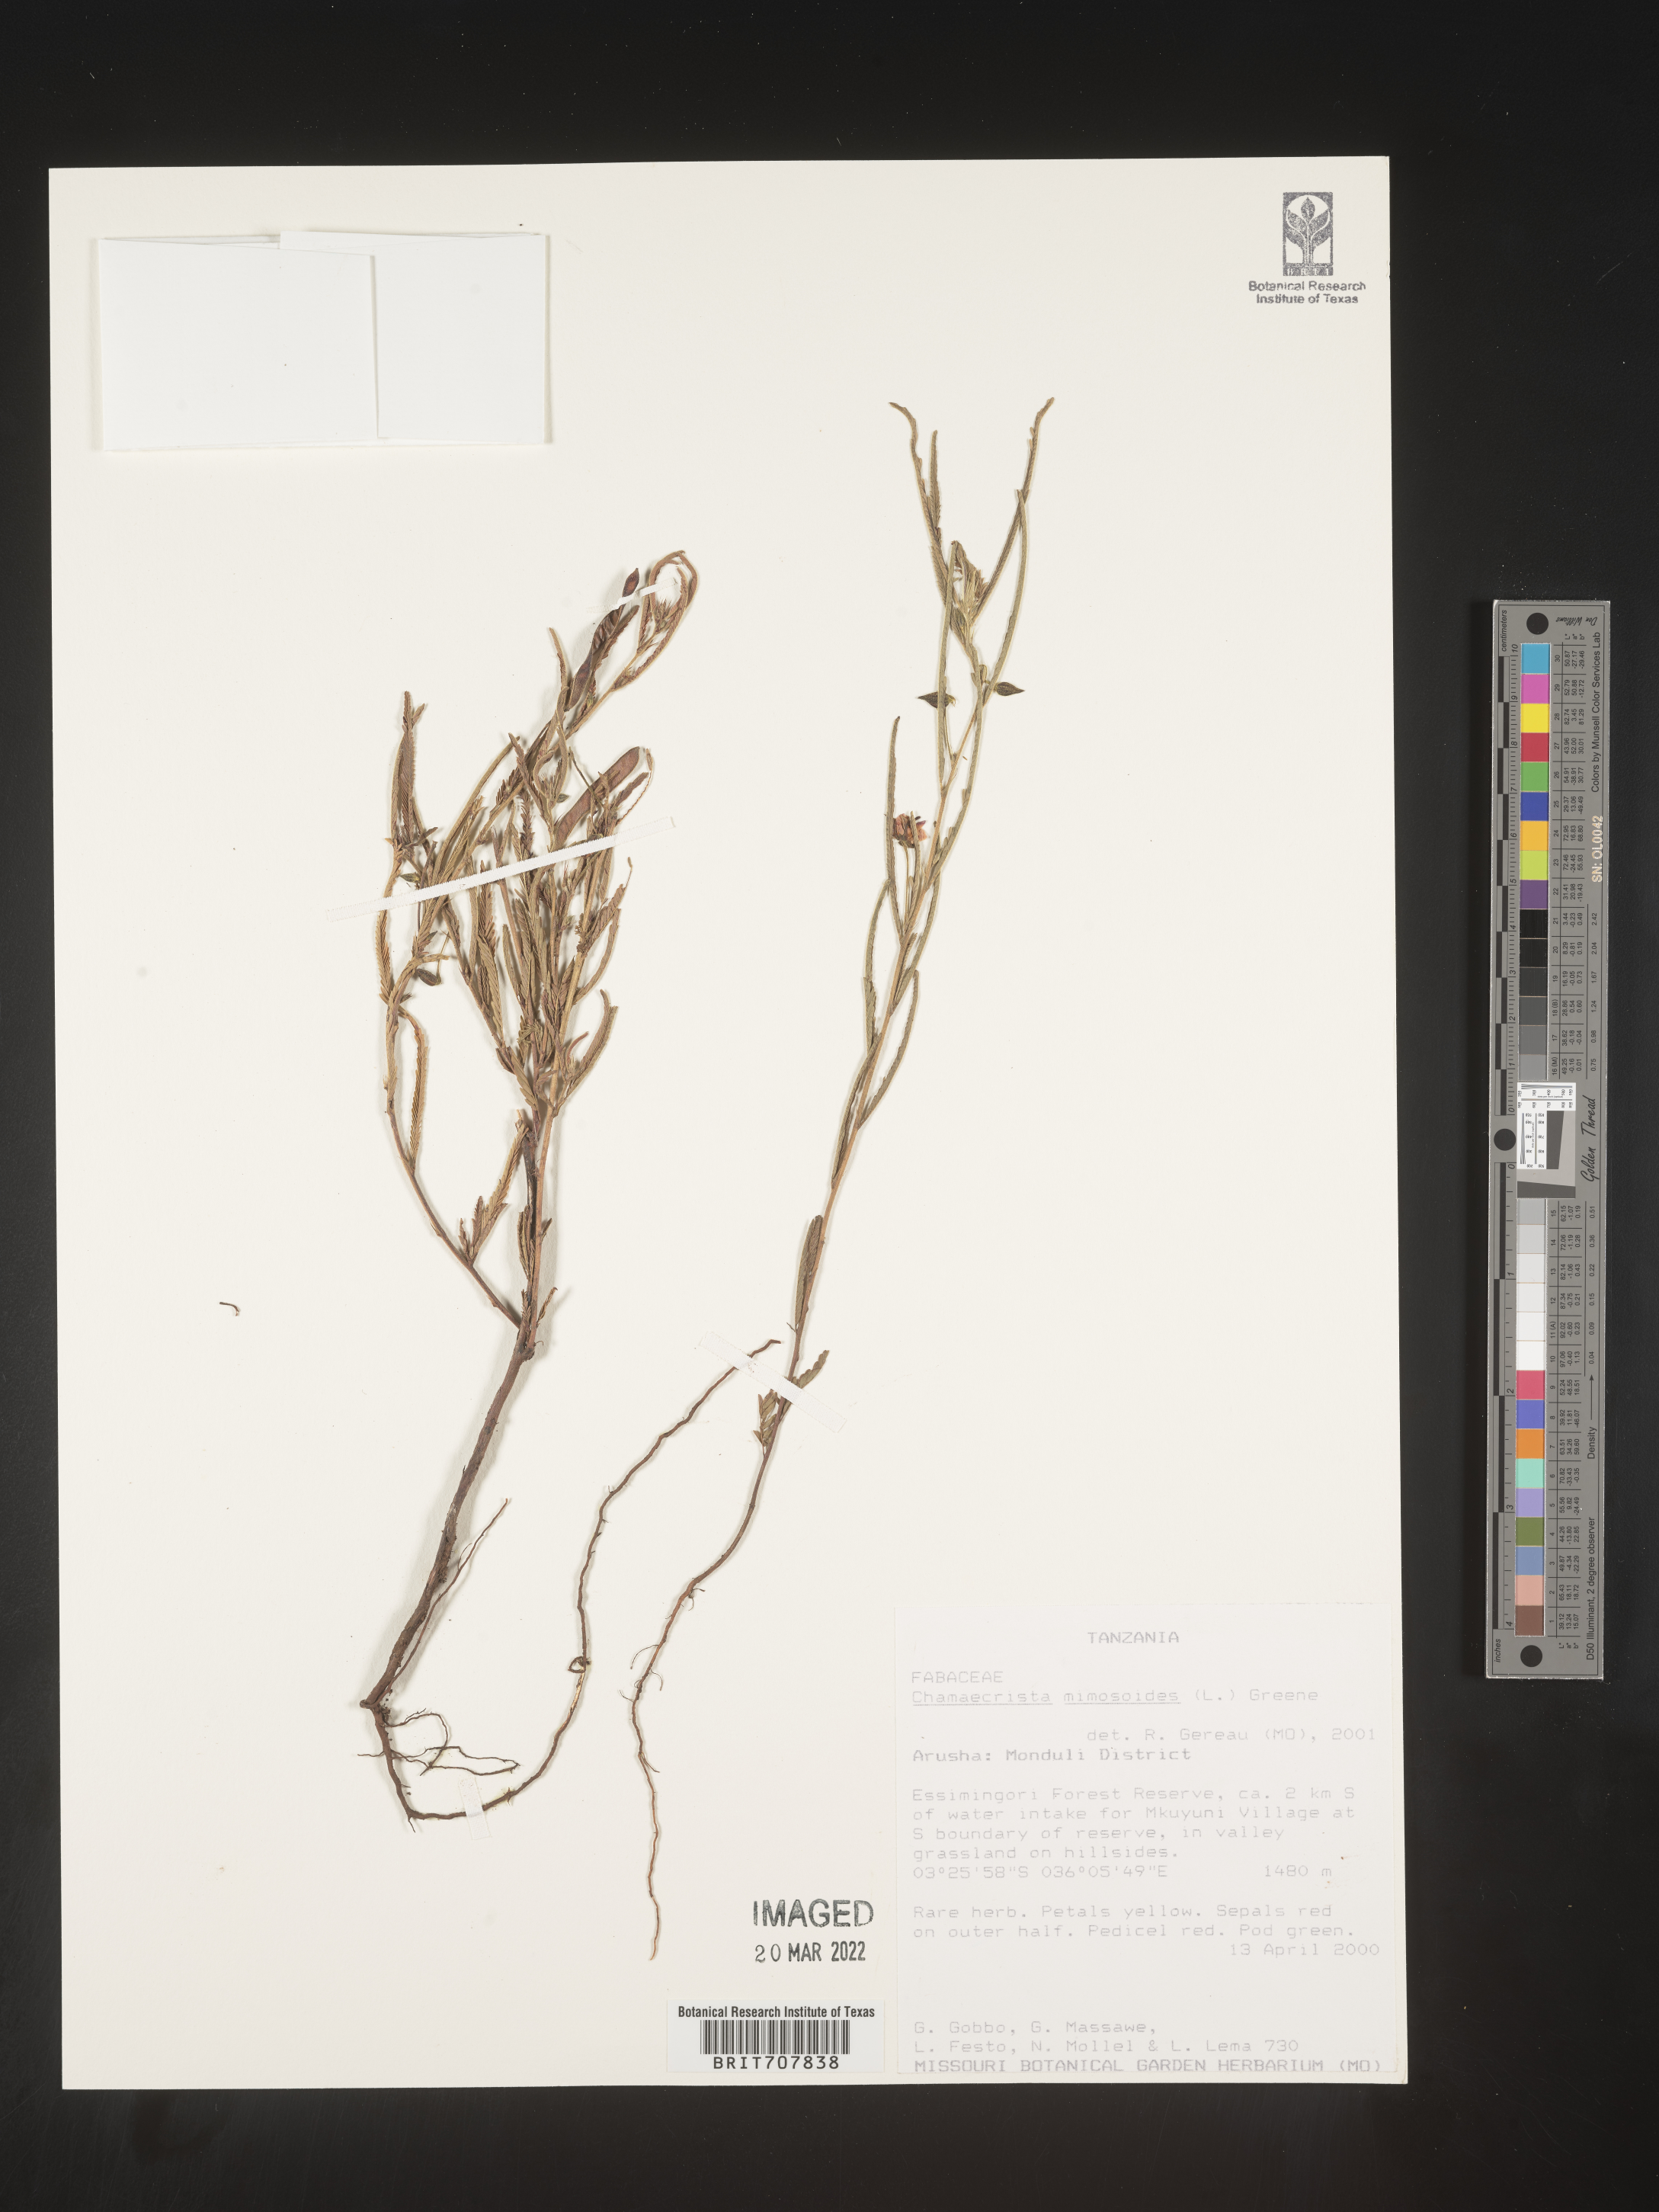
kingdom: Plantae
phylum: Tracheophyta
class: Magnoliopsida
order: Fabales
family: Fabaceae
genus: Chamaecrista
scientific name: Chamaecrista
